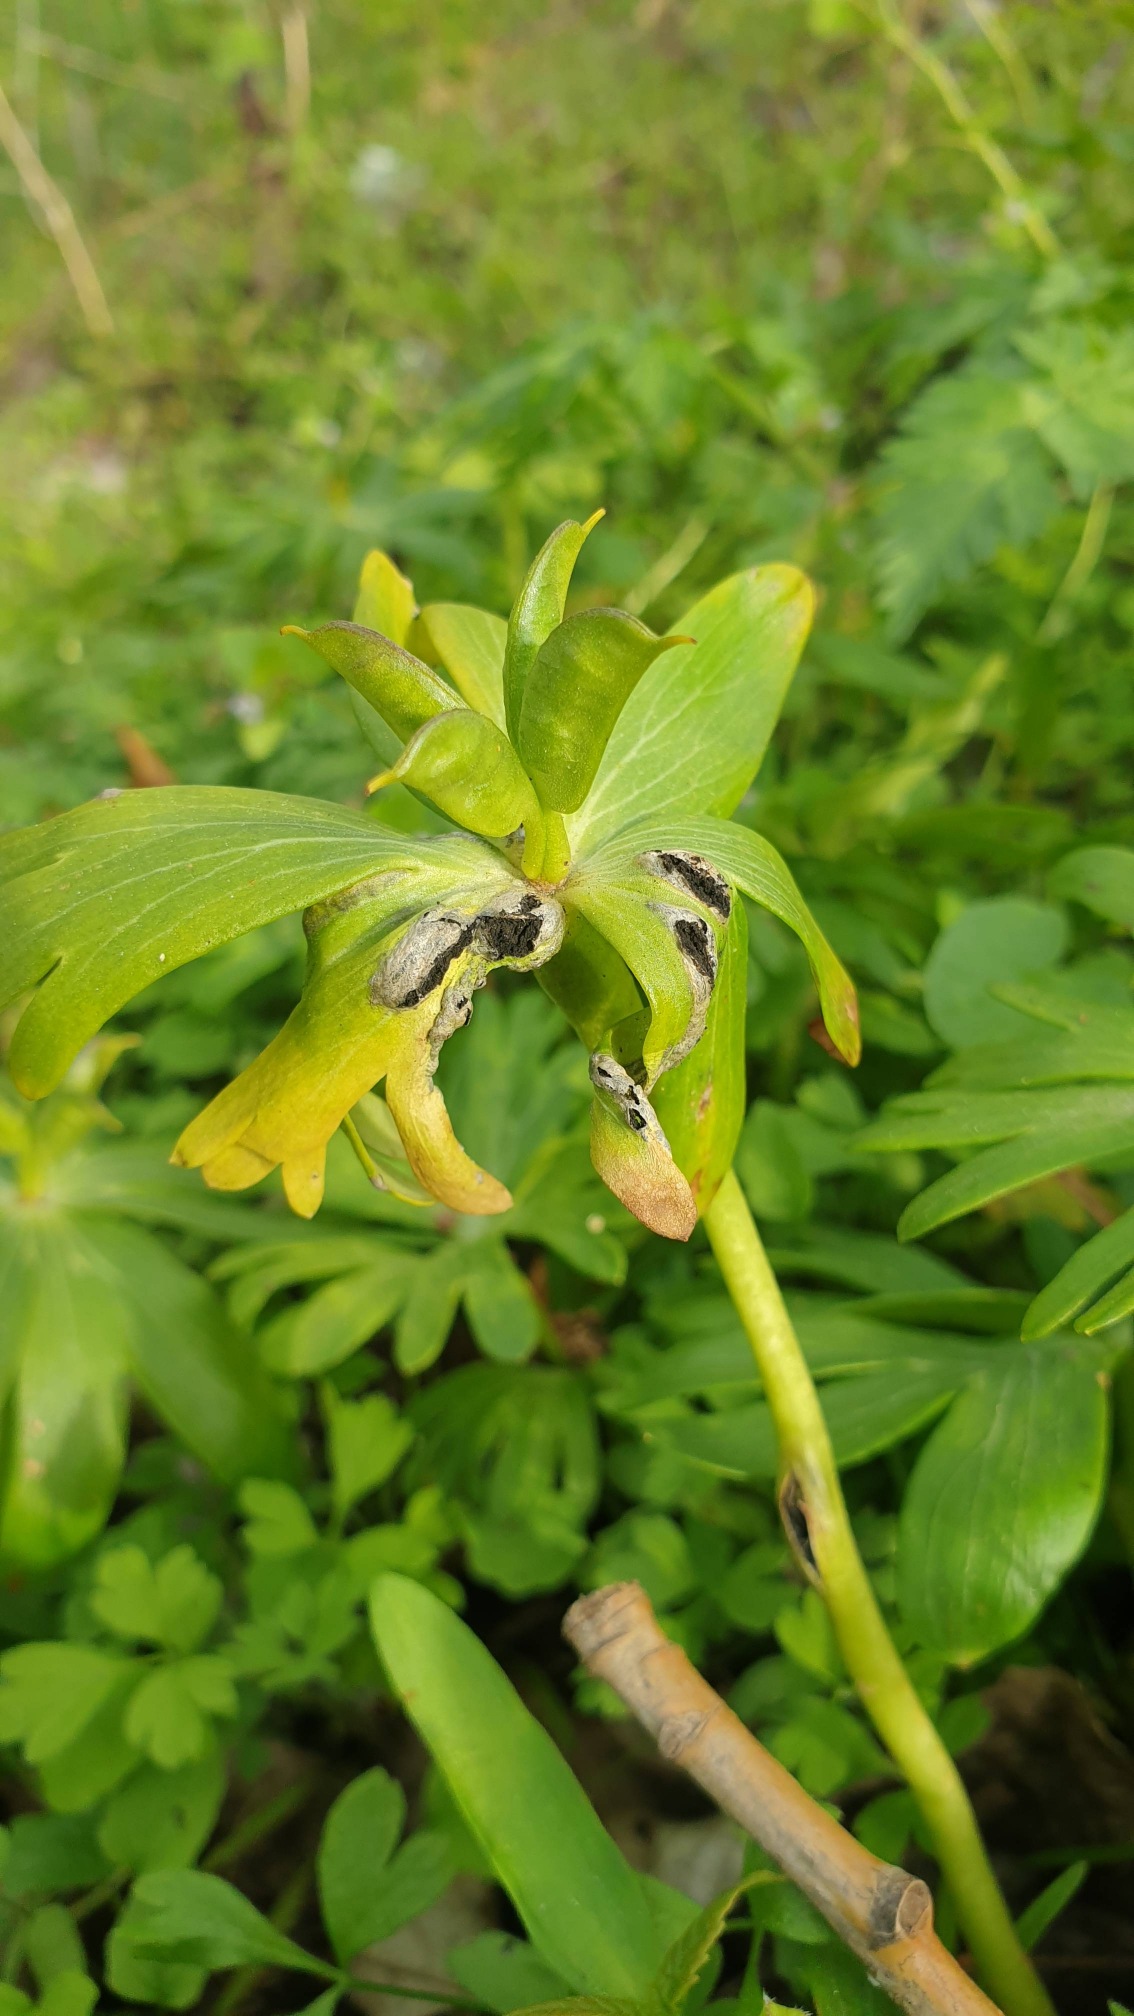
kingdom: Fungi
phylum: Basidiomycota
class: Ustilaginomycetes
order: Urocystidales
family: Urocystidaceae
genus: Urocystis
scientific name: Urocystis eranthidis
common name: Erantis-brand
